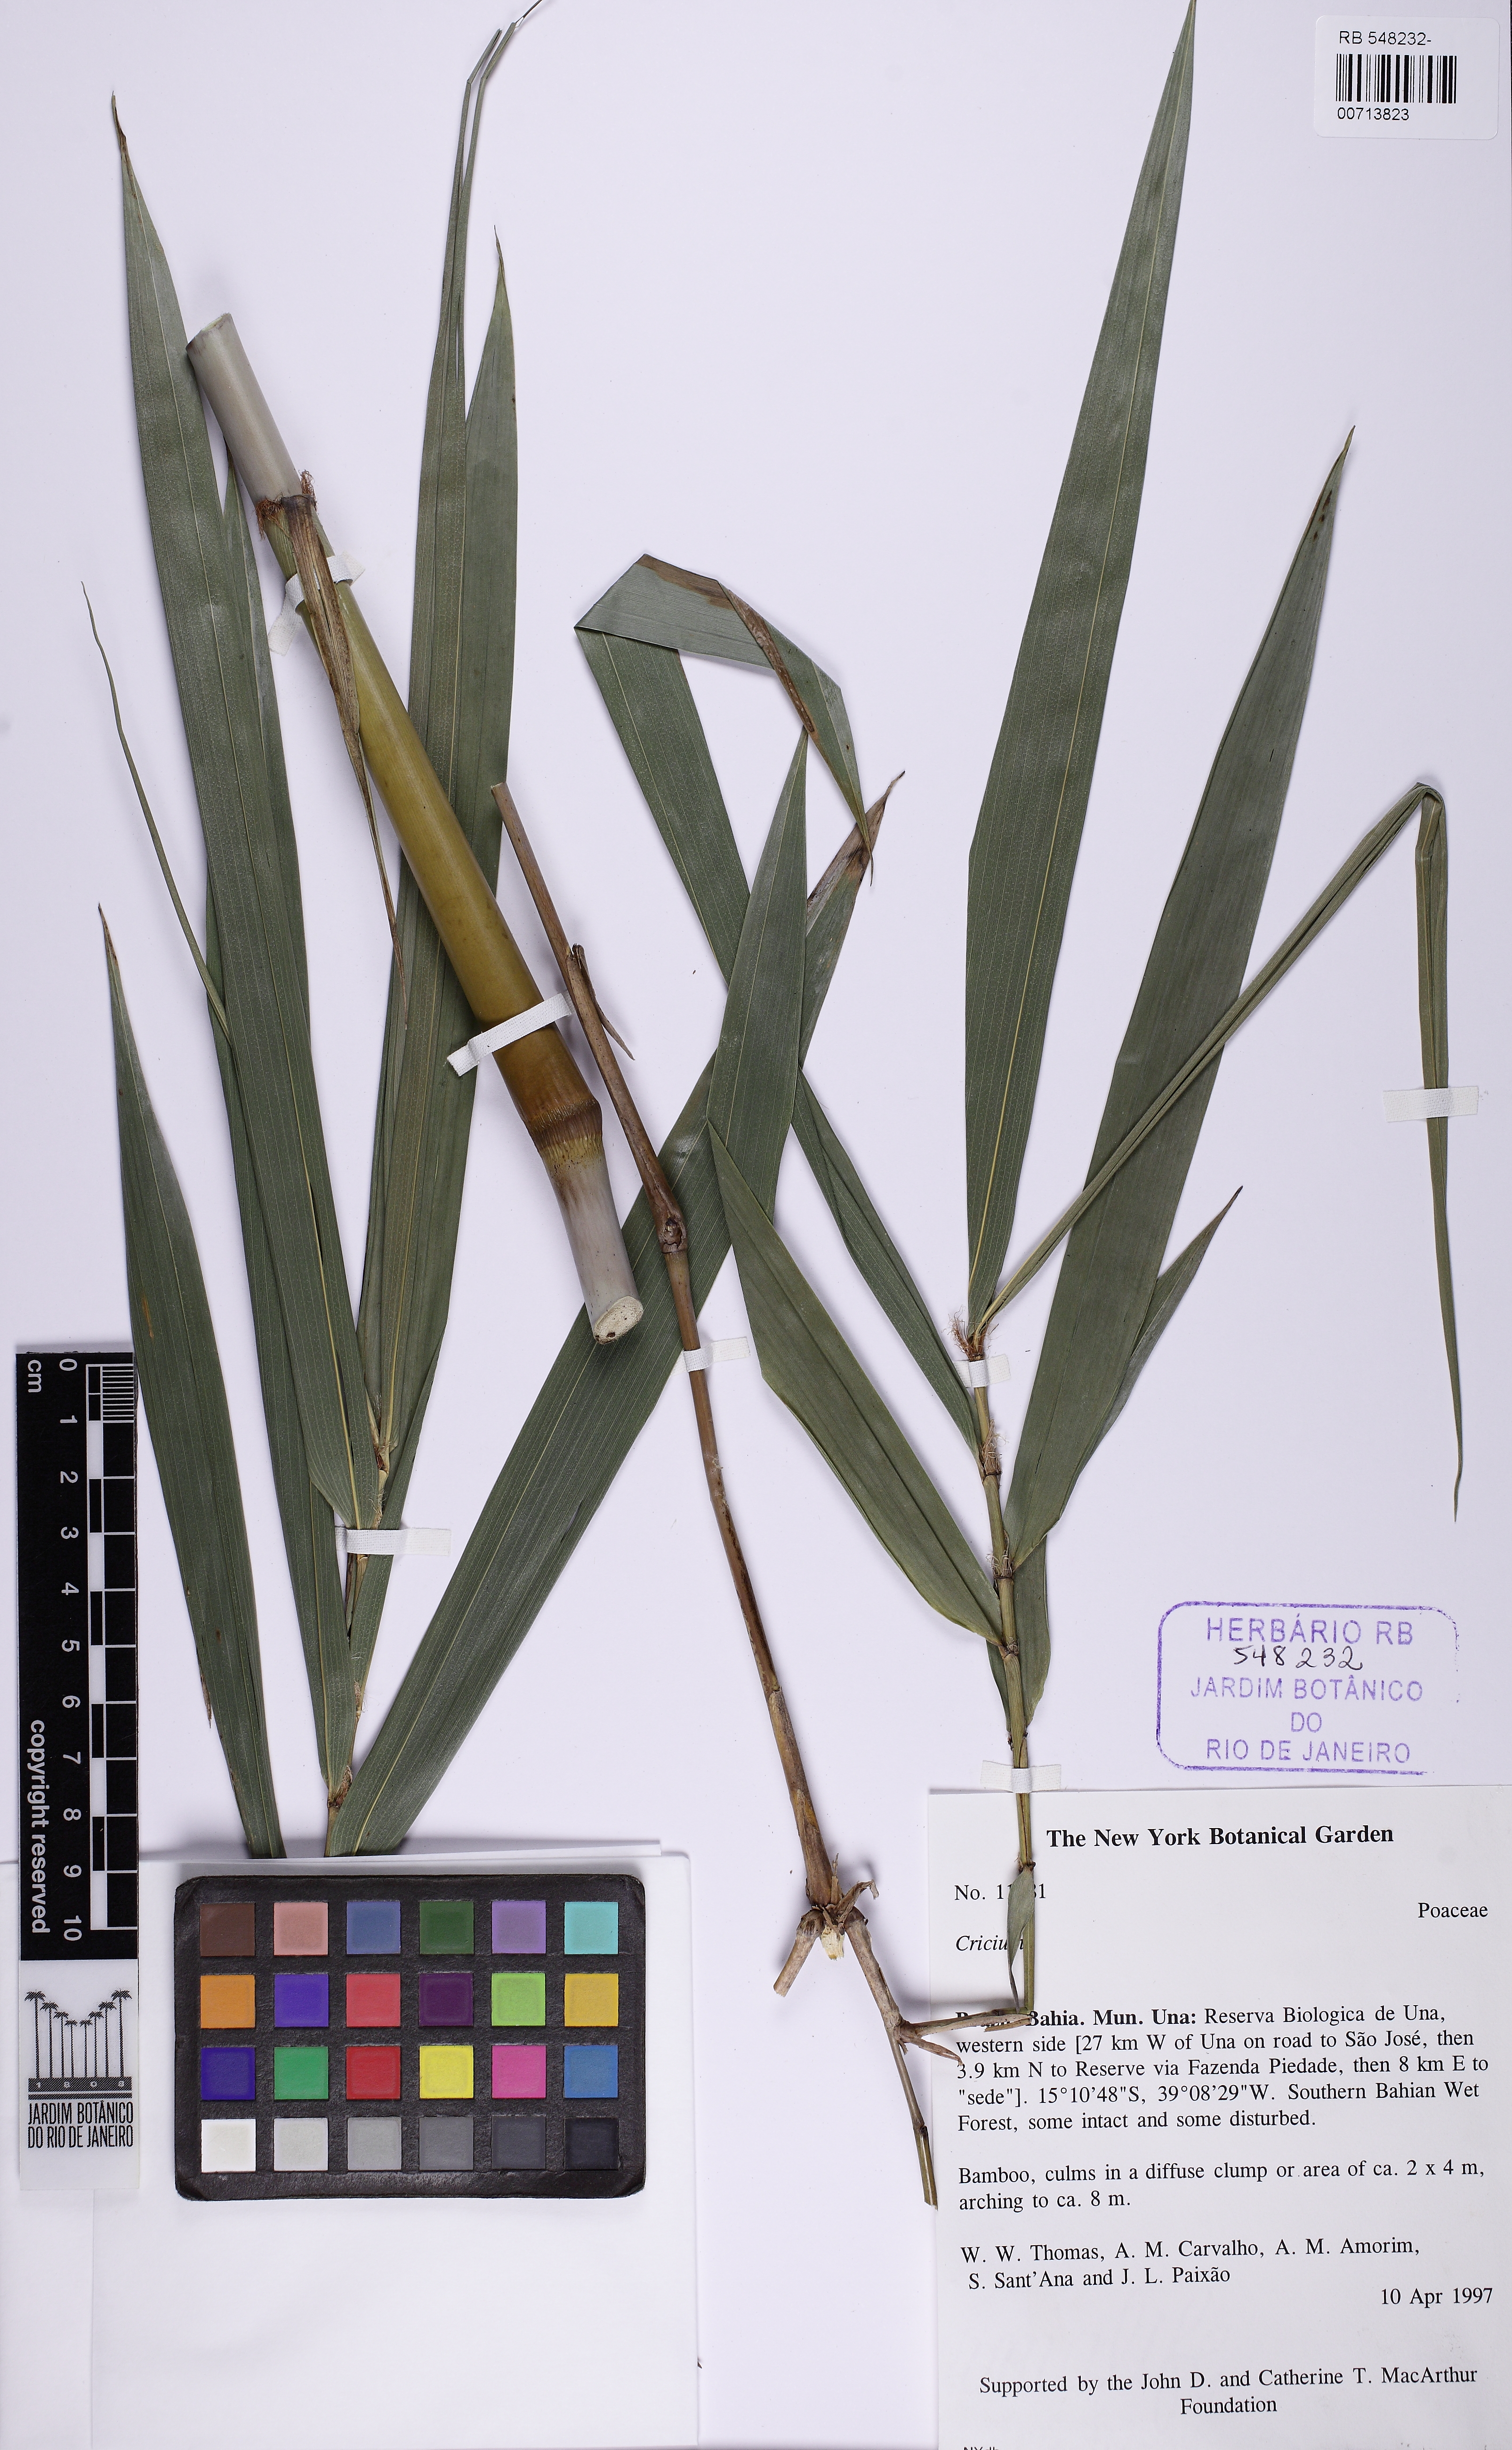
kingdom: Plantae
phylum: Tracheophyta
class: Liliopsida
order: Poales
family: Poaceae
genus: Eremocaulon
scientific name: Eremocaulon
